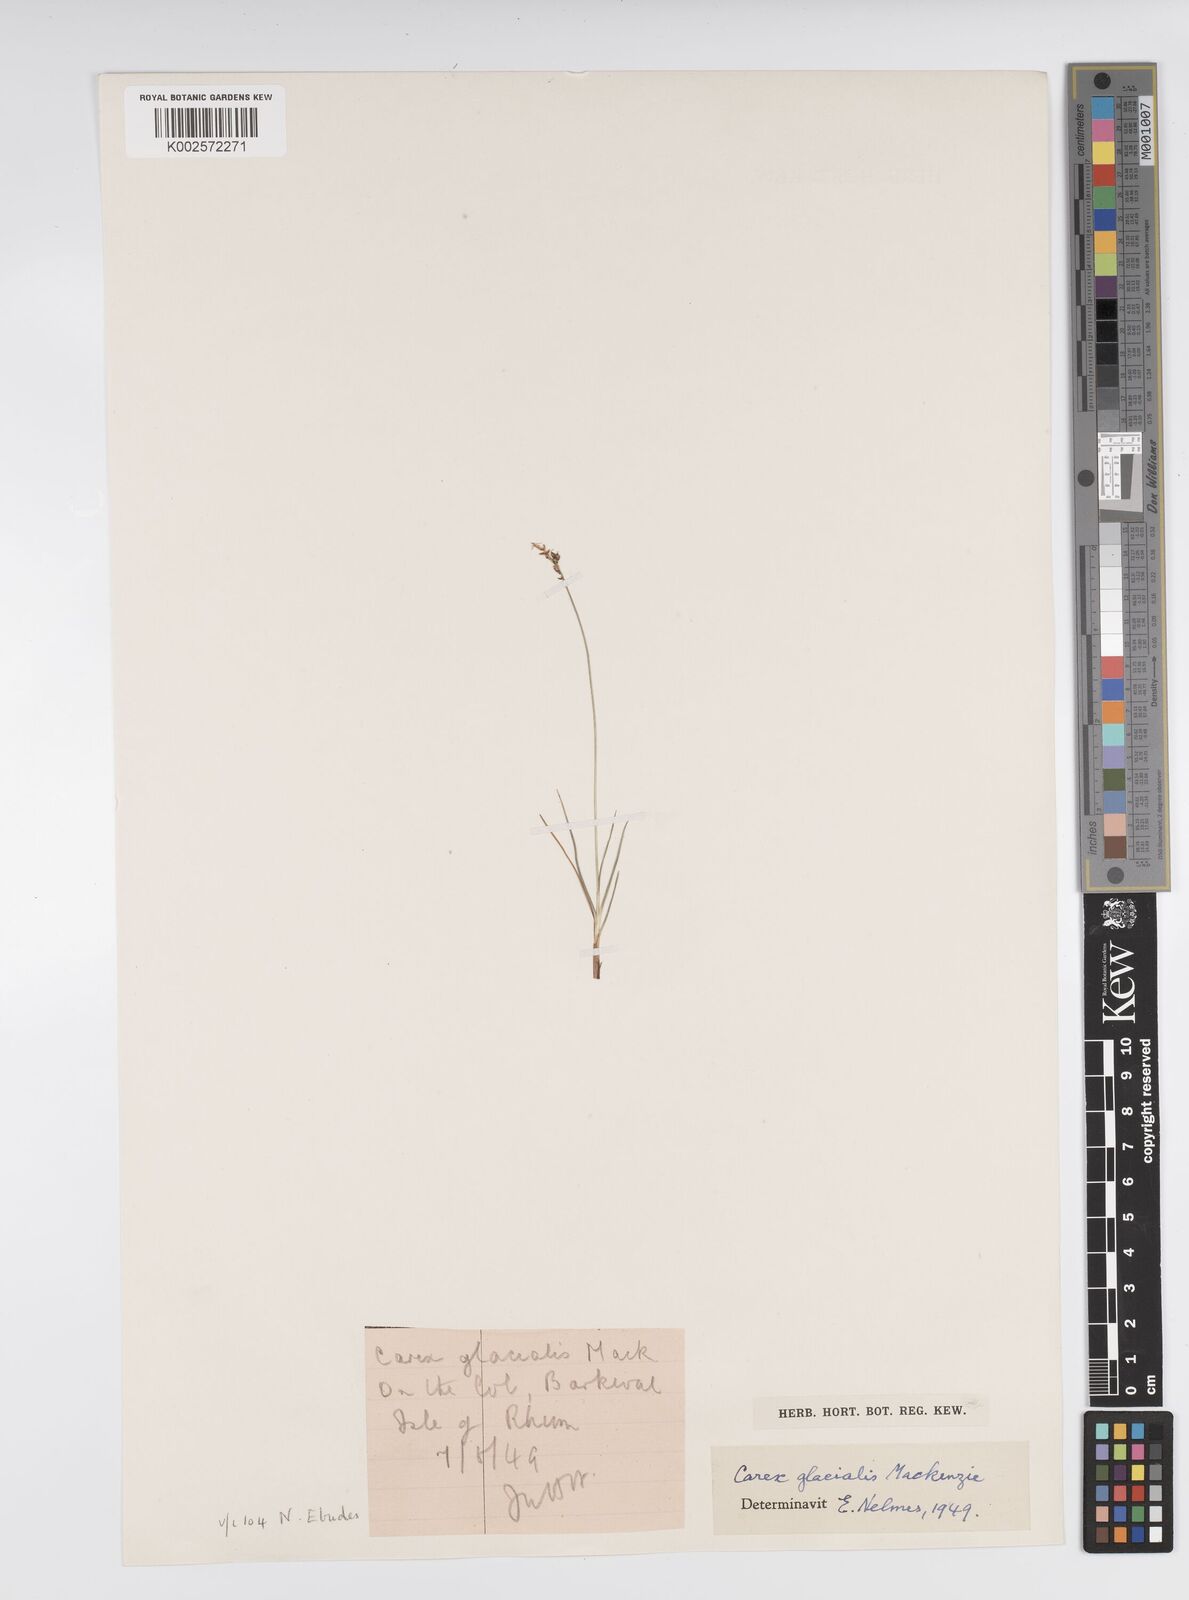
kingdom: Plantae
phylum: Tracheophyta
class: Liliopsida
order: Poales
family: Cyperaceae
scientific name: Cyperaceae
